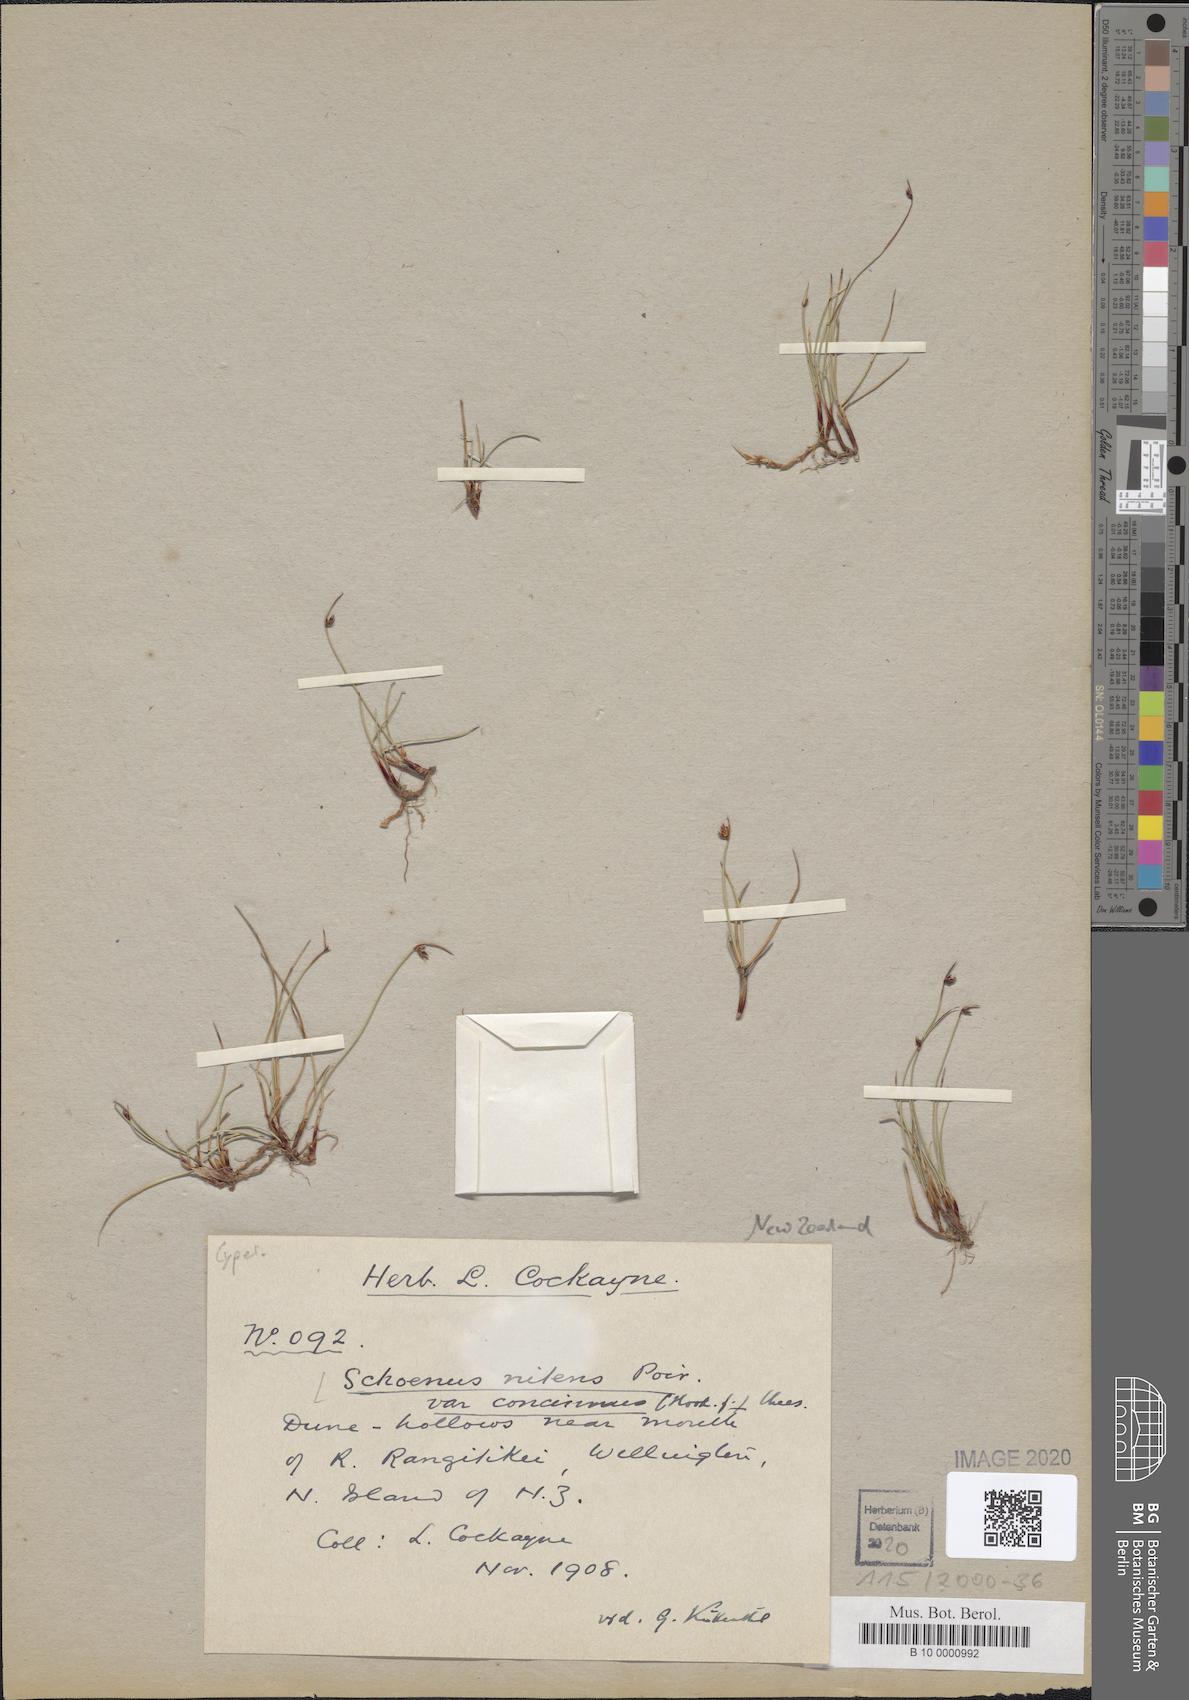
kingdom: Plantae
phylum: Tracheophyta
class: Liliopsida
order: Poales
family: Cyperaceae
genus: Schoenus
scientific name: Schoenus nitens
